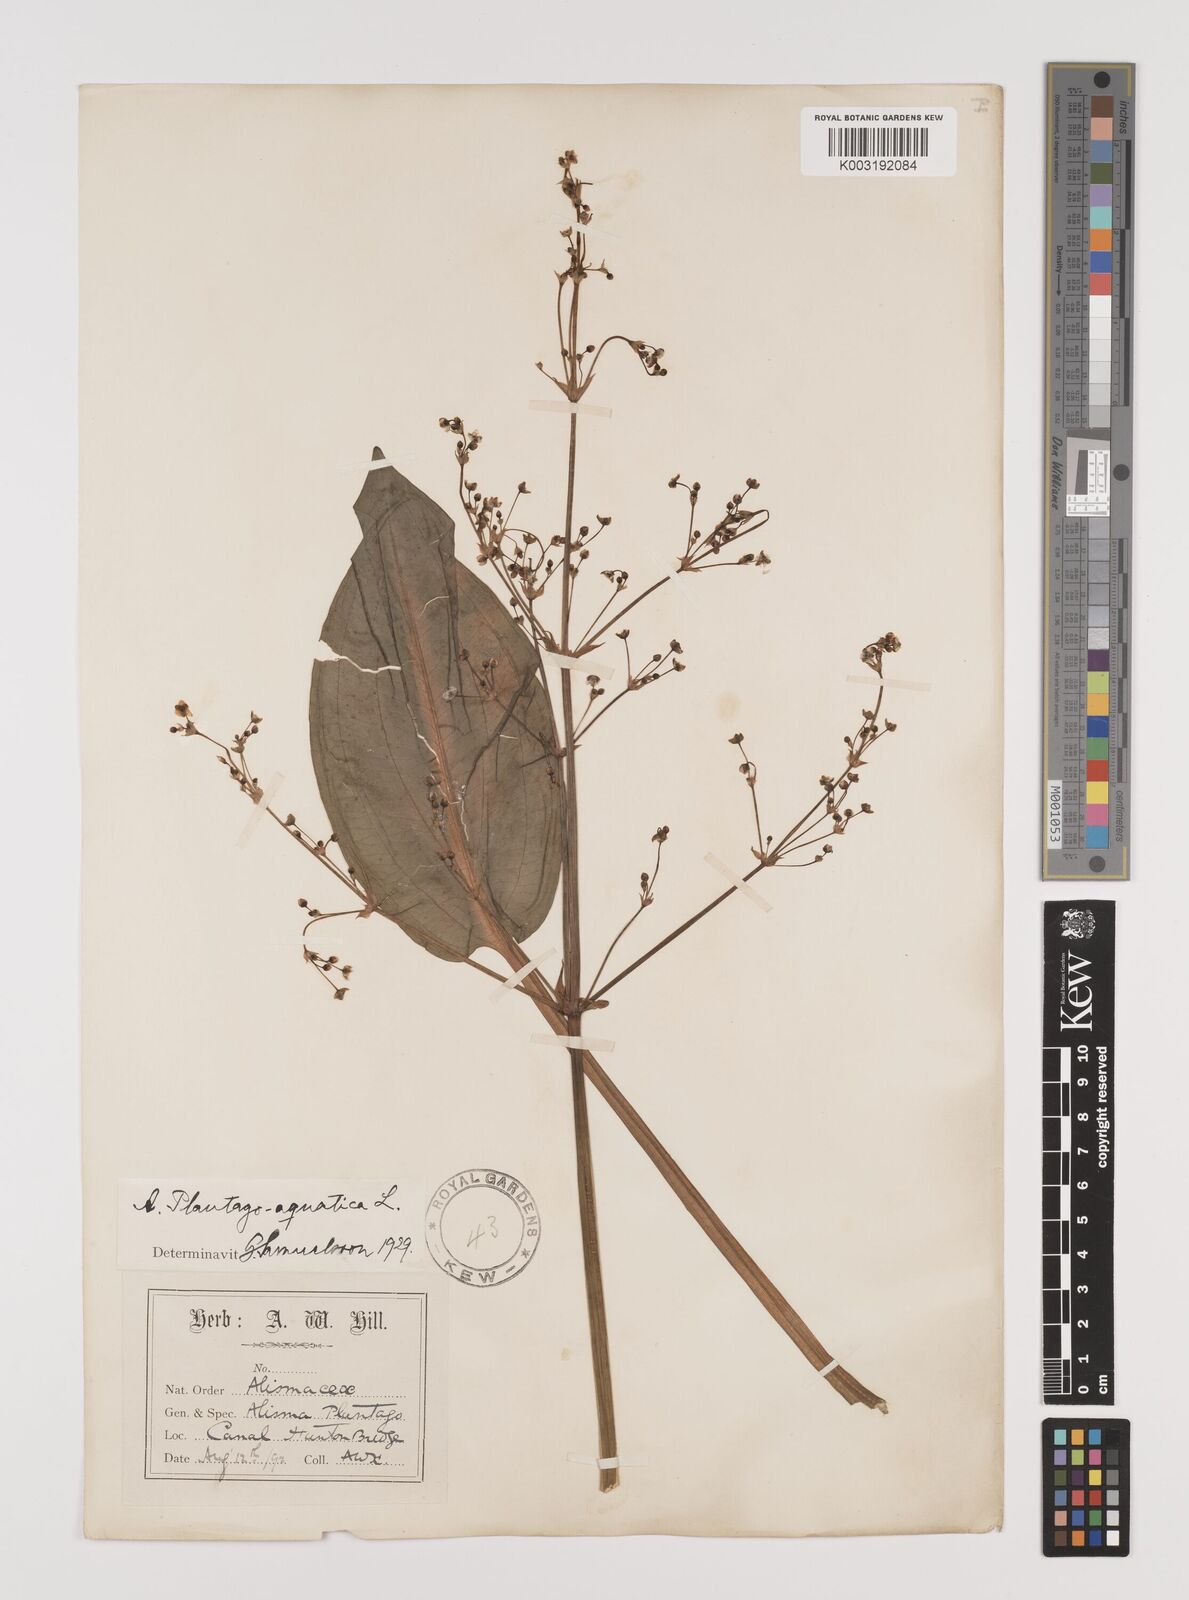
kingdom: Plantae
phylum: Tracheophyta
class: Liliopsida
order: Alismatales
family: Alismataceae
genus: Alisma
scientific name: Alisma plantago-aquatica
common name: Water-plantain
